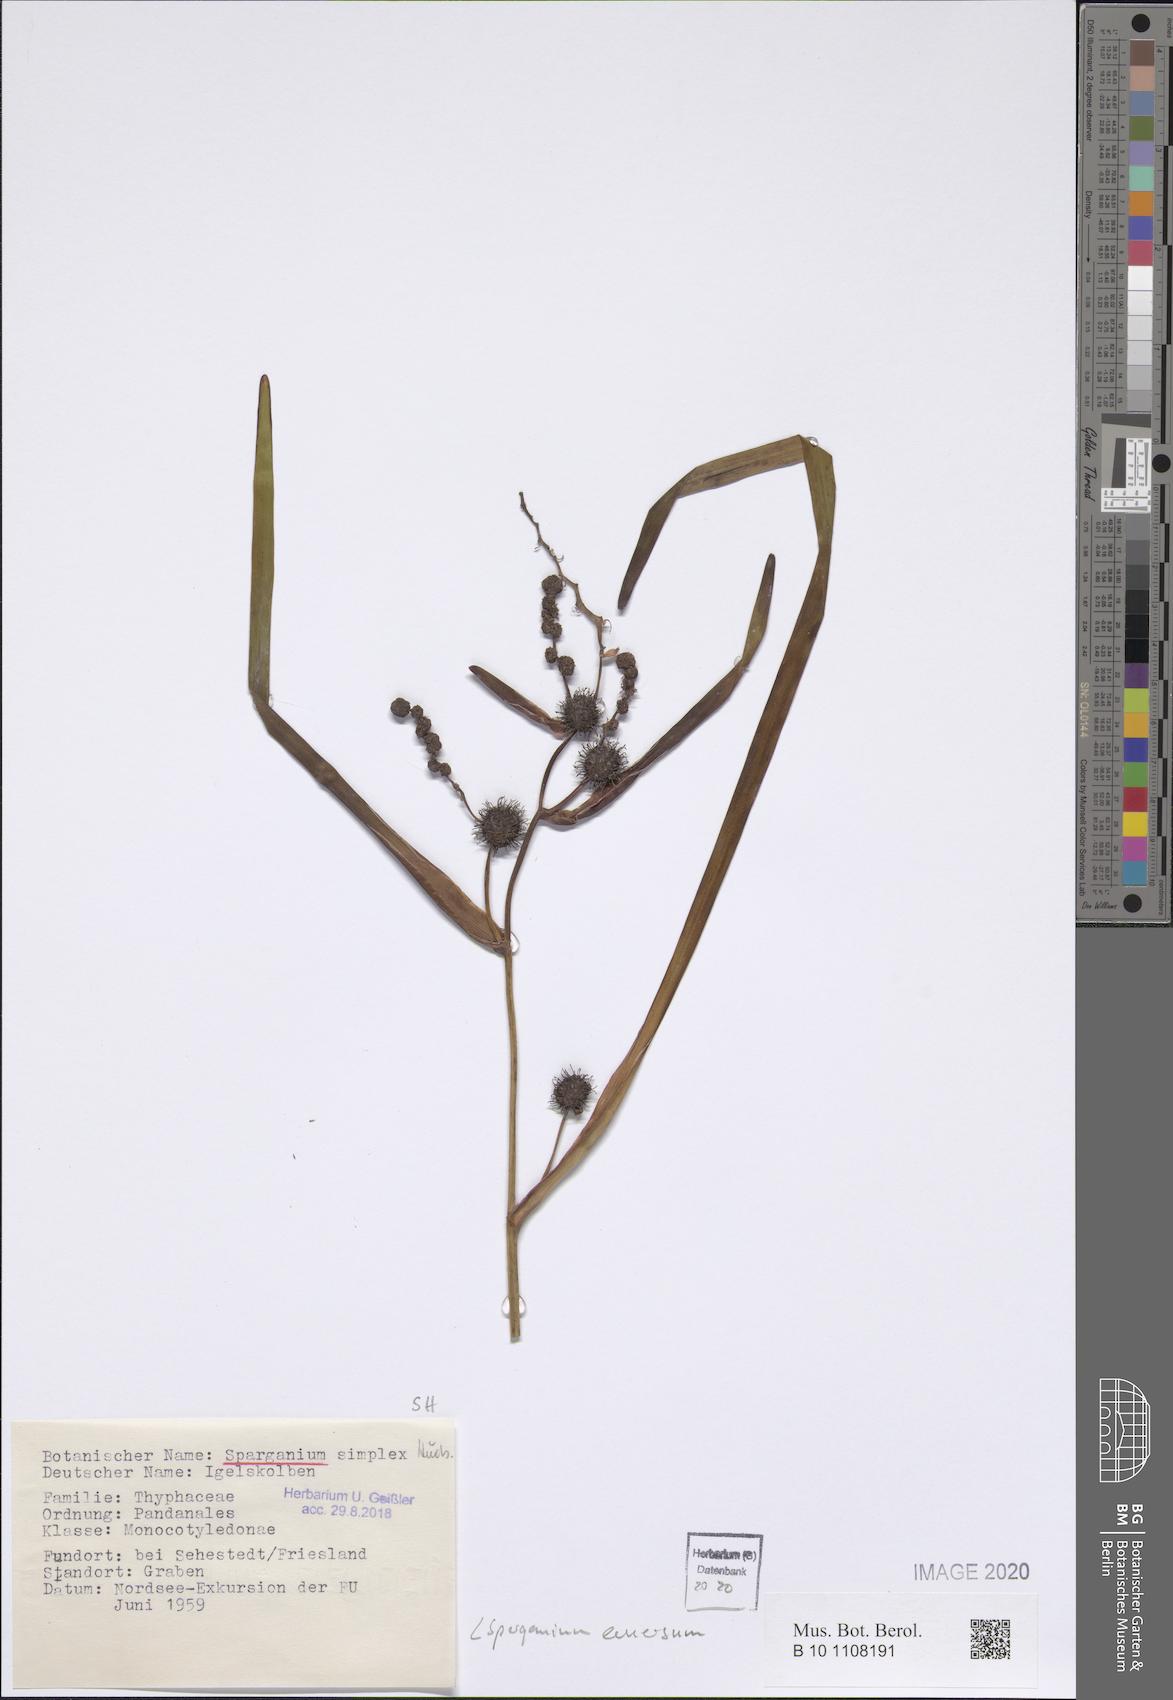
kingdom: Plantae
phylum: Tracheophyta
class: Liliopsida
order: Poales
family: Typhaceae
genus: Sparganium
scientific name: Sparganium emersum
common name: Unbranched bur-reed
